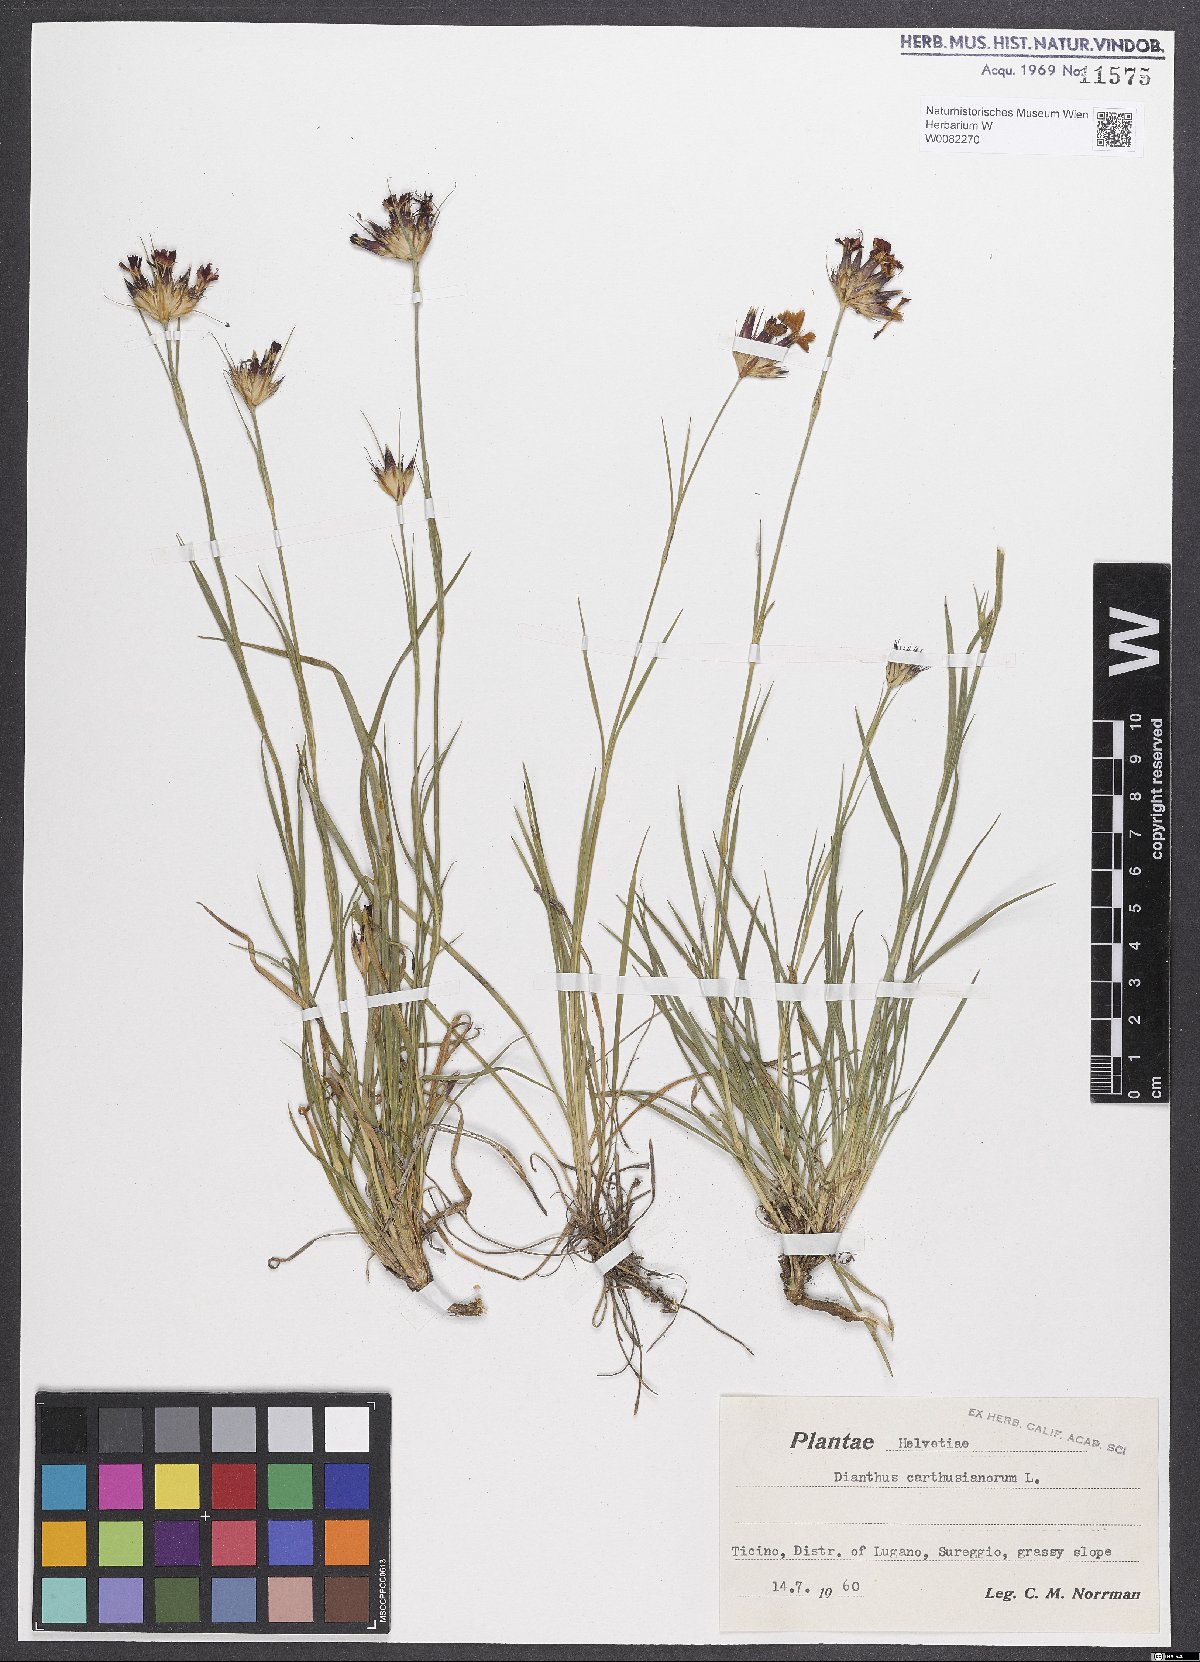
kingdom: Plantae
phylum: Tracheophyta
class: Magnoliopsida
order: Caryophyllales
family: Caryophyllaceae
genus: Dianthus
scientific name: Dianthus carthusianorum
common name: Carthusian pink
